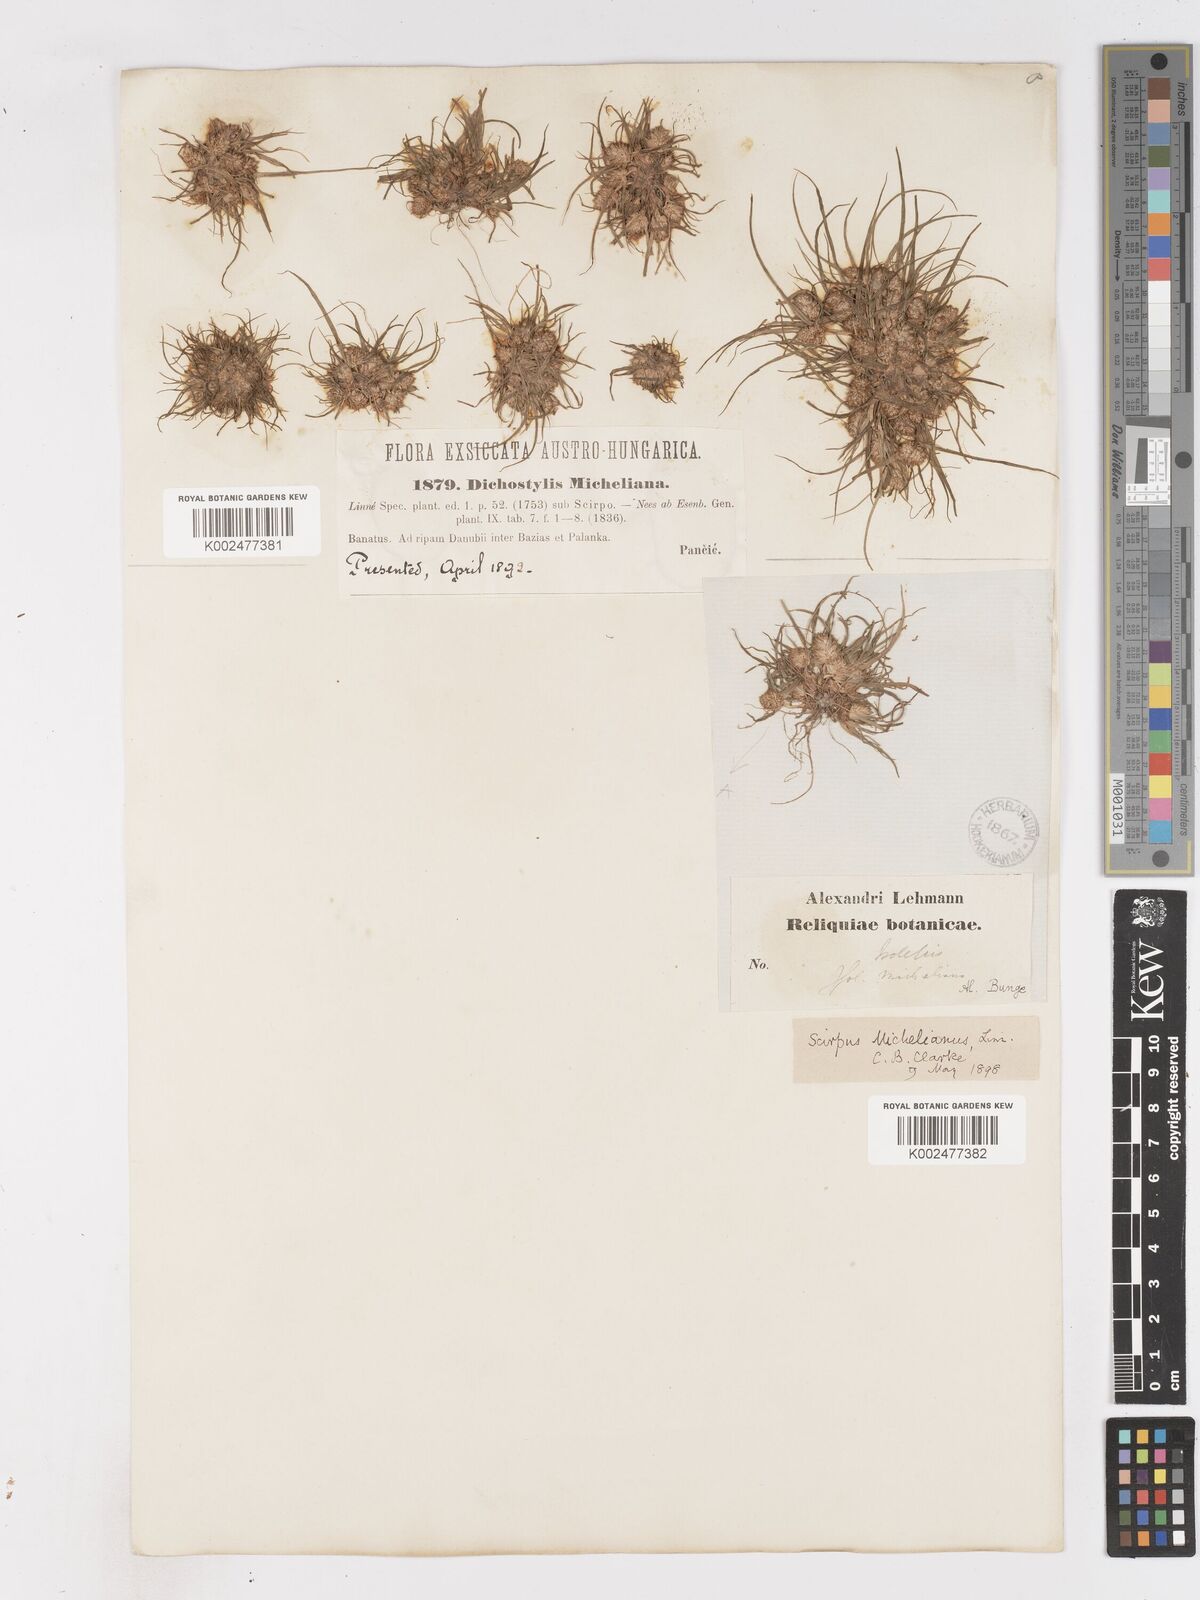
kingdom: Plantae
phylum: Tracheophyta
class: Liliopsida
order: Poales
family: Cyperaceae
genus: Cyperus
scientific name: Cyperus michelianus
